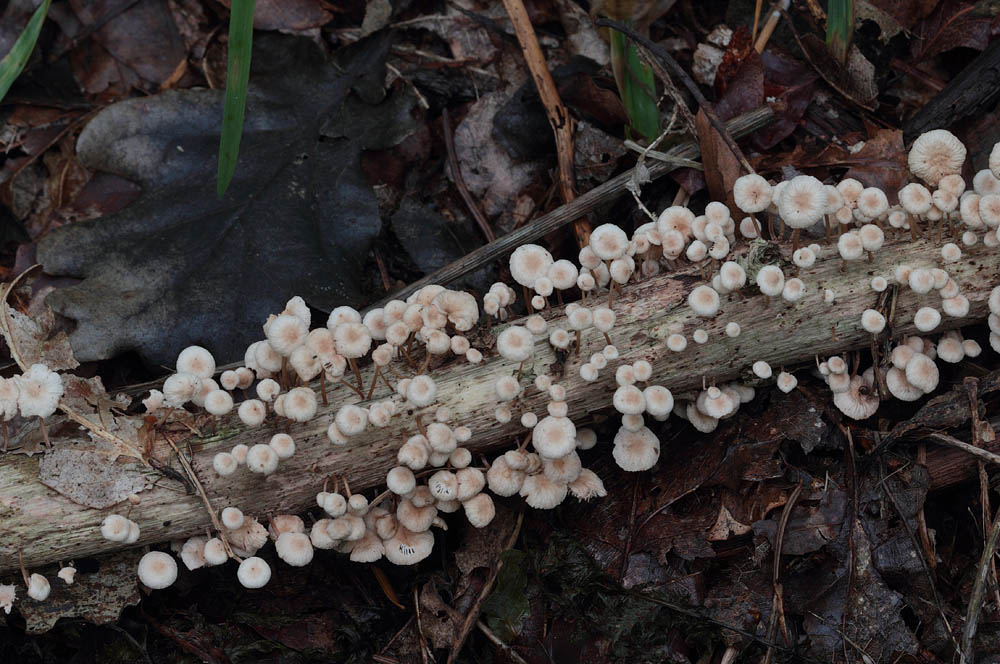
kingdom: Fungi
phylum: Basidiomycota
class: Agaricomycetes
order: Agaricales
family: Omphalotaceae
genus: Collybiopsis
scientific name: Collybiopsis ramealis
